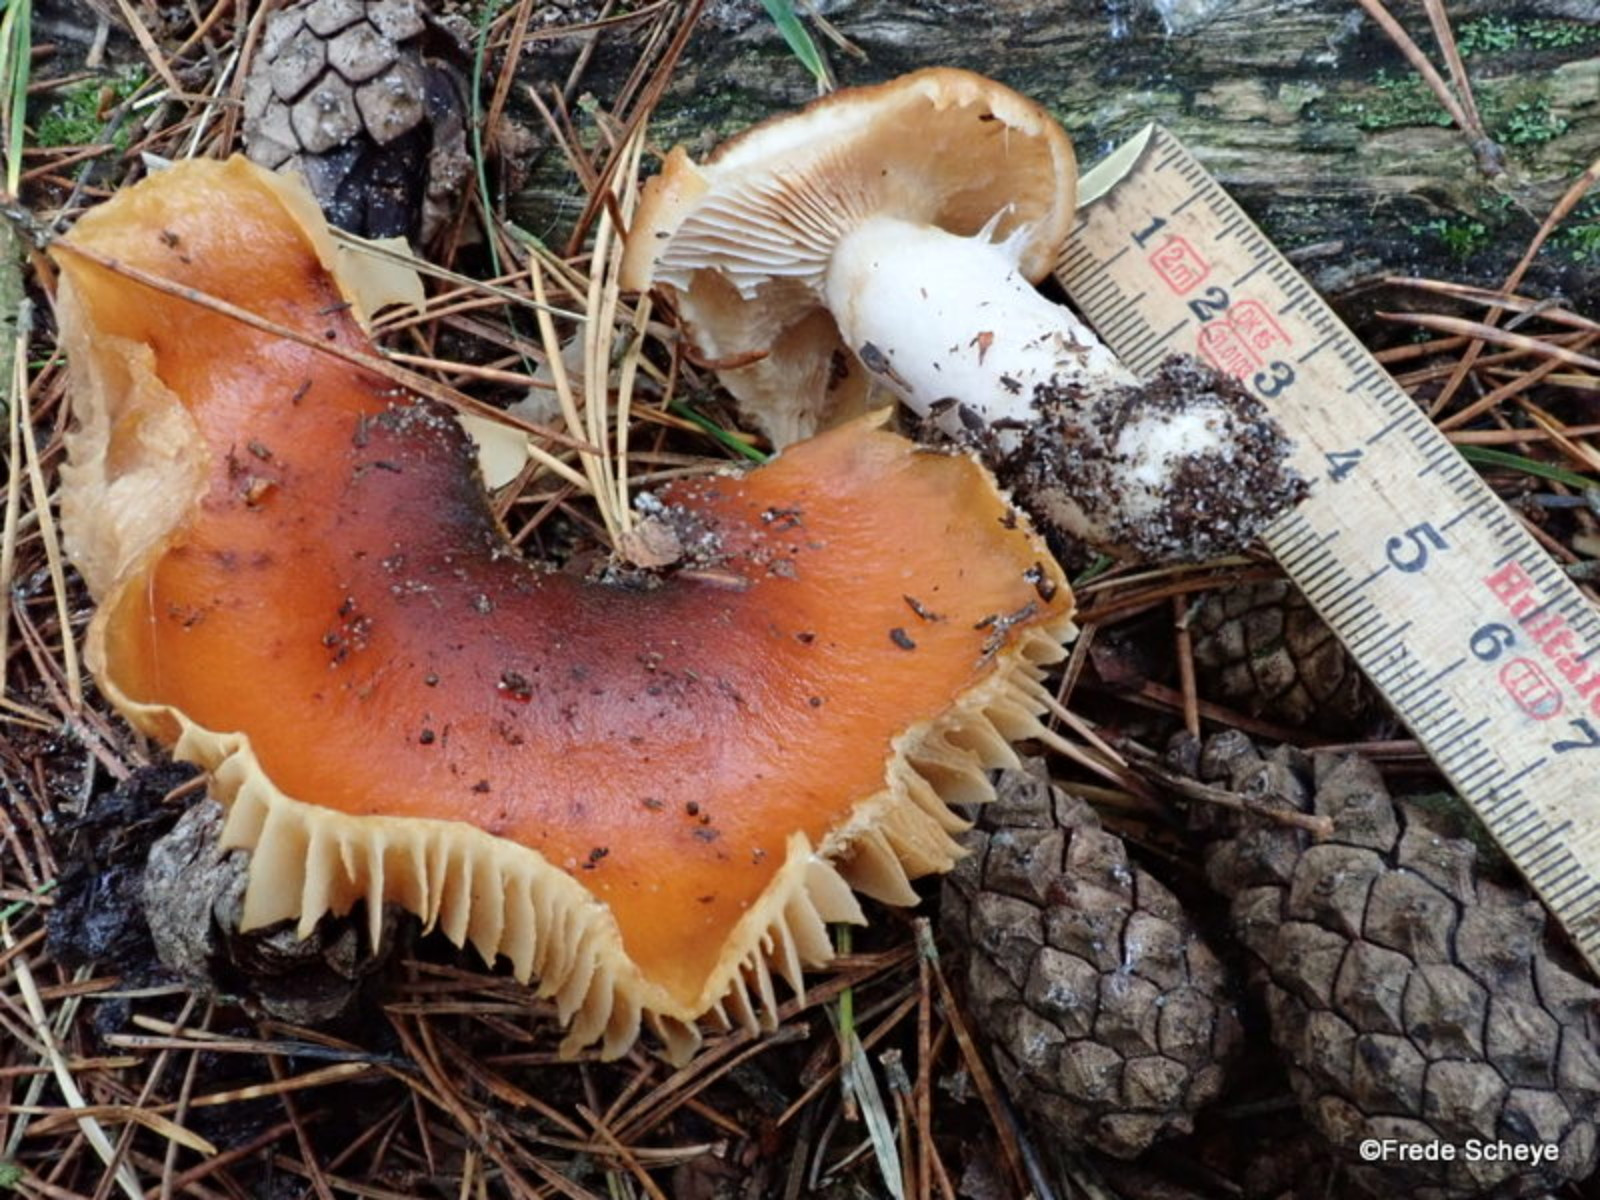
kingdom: Fungi
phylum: Basidiomycota
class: Agaricomycetes
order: Agaricales
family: Cortinariaceae
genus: Cortinarius
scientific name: Cortinarius mucosus
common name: kastaniebrun slørhat
